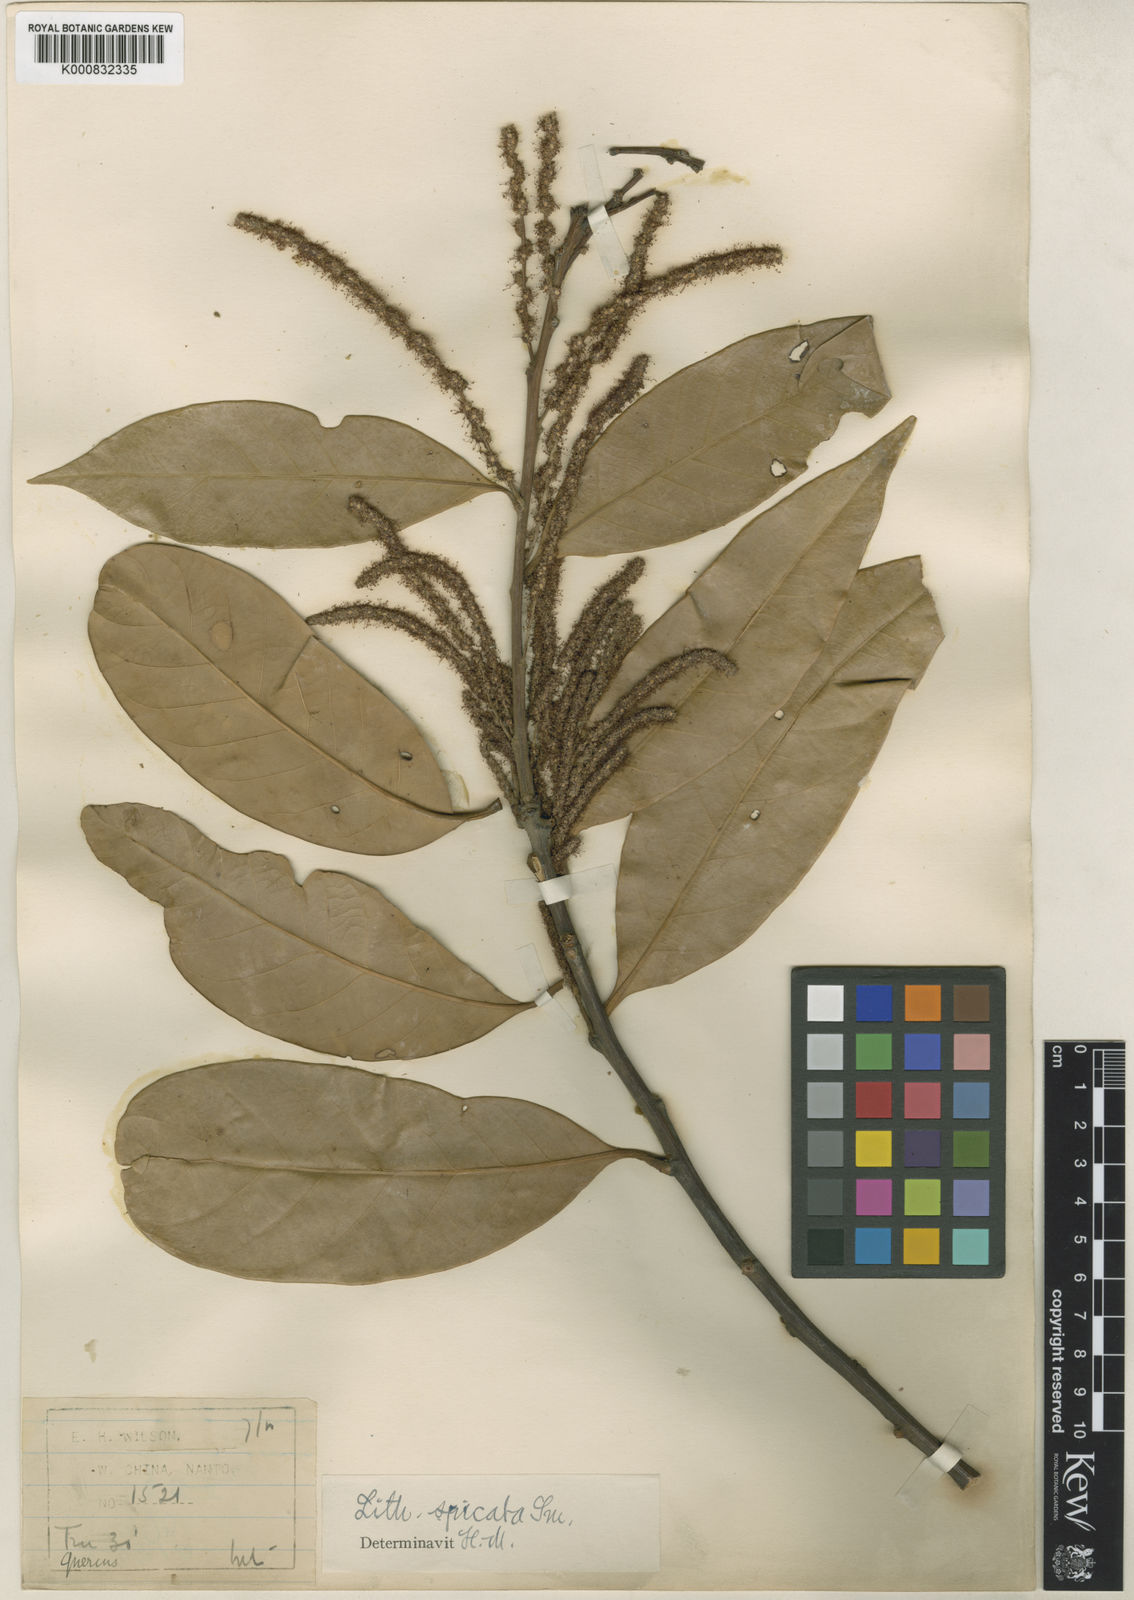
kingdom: Plantae
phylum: Tracheophyta
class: Magnoliopsida
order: Fagales
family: Fagaceae
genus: Lithocarpus
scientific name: Lithocarpus cleistocarpus
